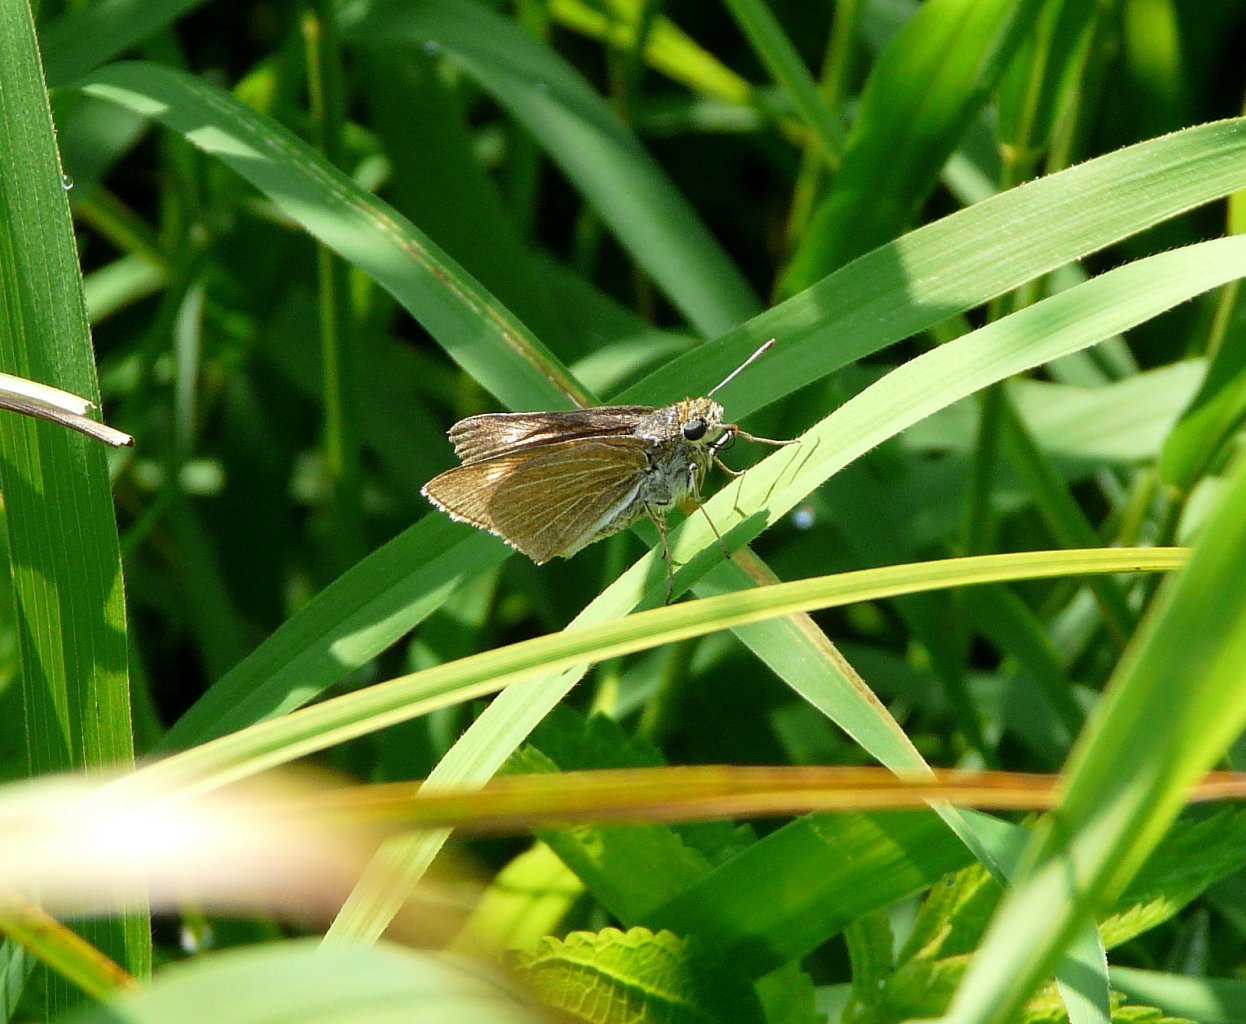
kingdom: Animalia
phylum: Arthropoda
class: Insecta
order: Lepidoptera
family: Hesperiidae
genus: Euphyes
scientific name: Euphyes bimacula
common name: Two-spotted Skipper
